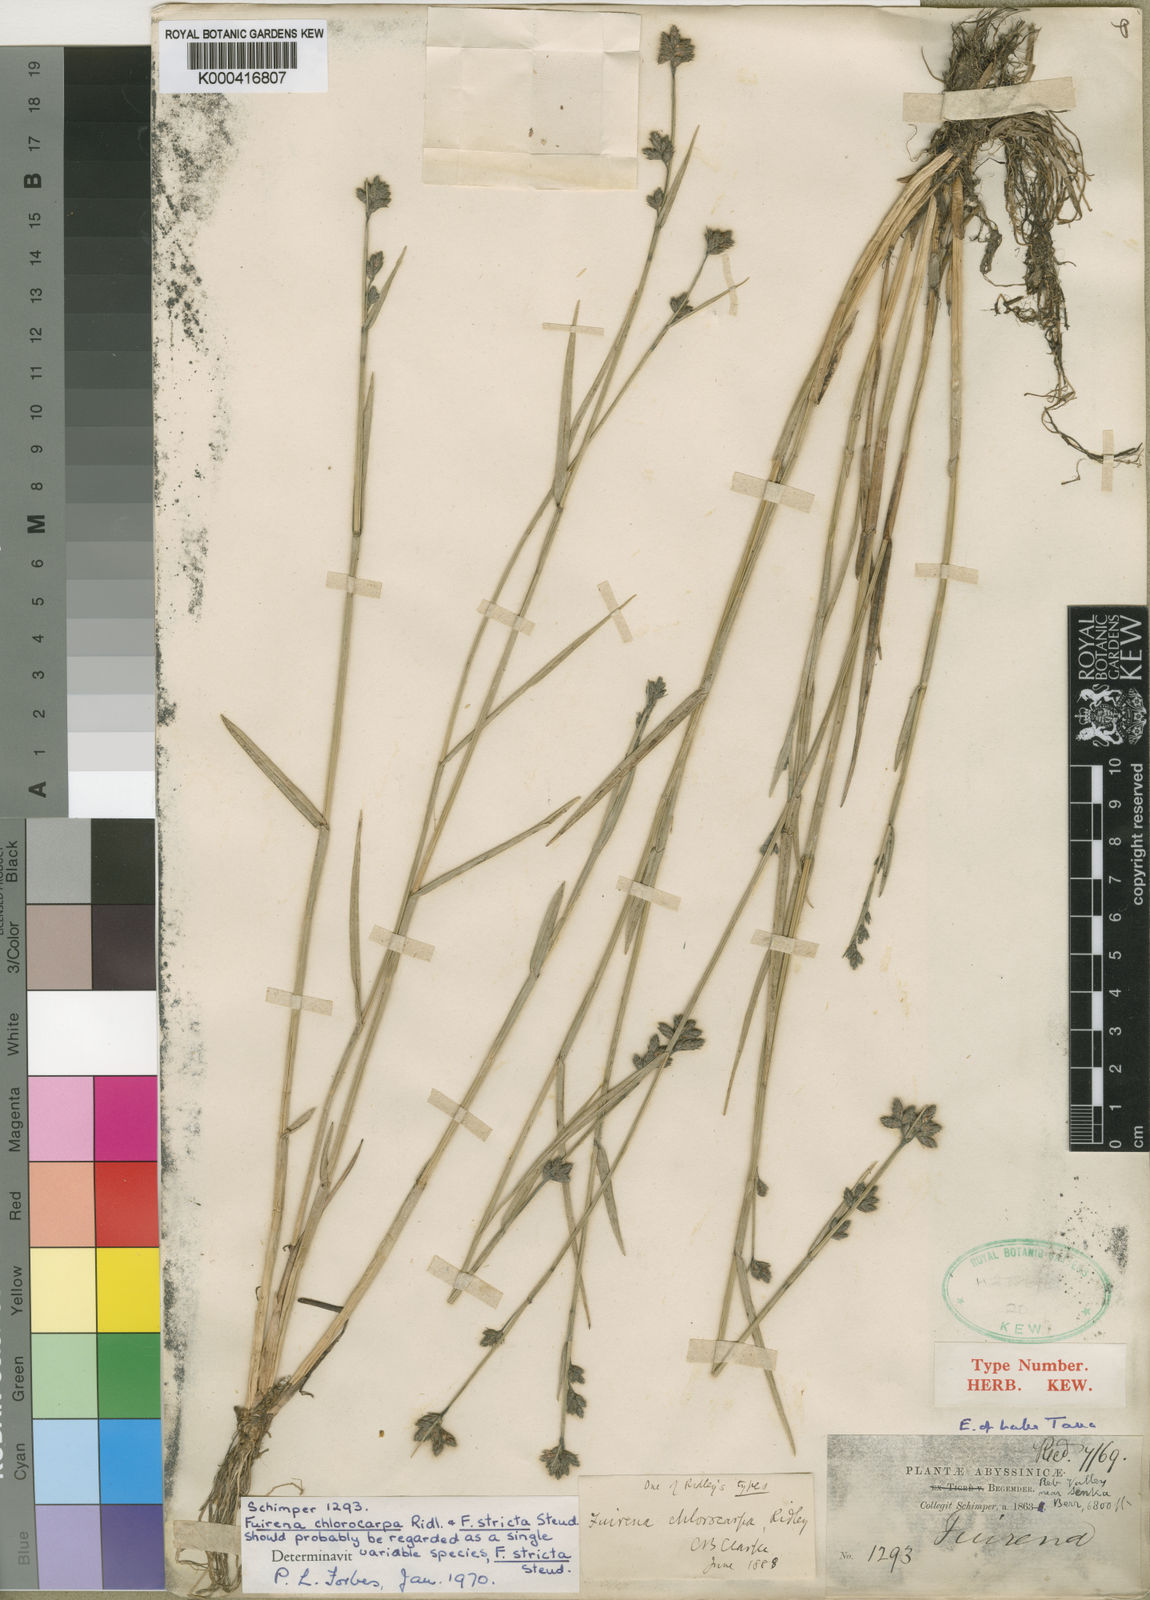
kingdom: Plantae
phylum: Tracheophyta
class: Liliopsida
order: Poales
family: Cyperaceae
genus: Fuirena
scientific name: Fuirena stricta
